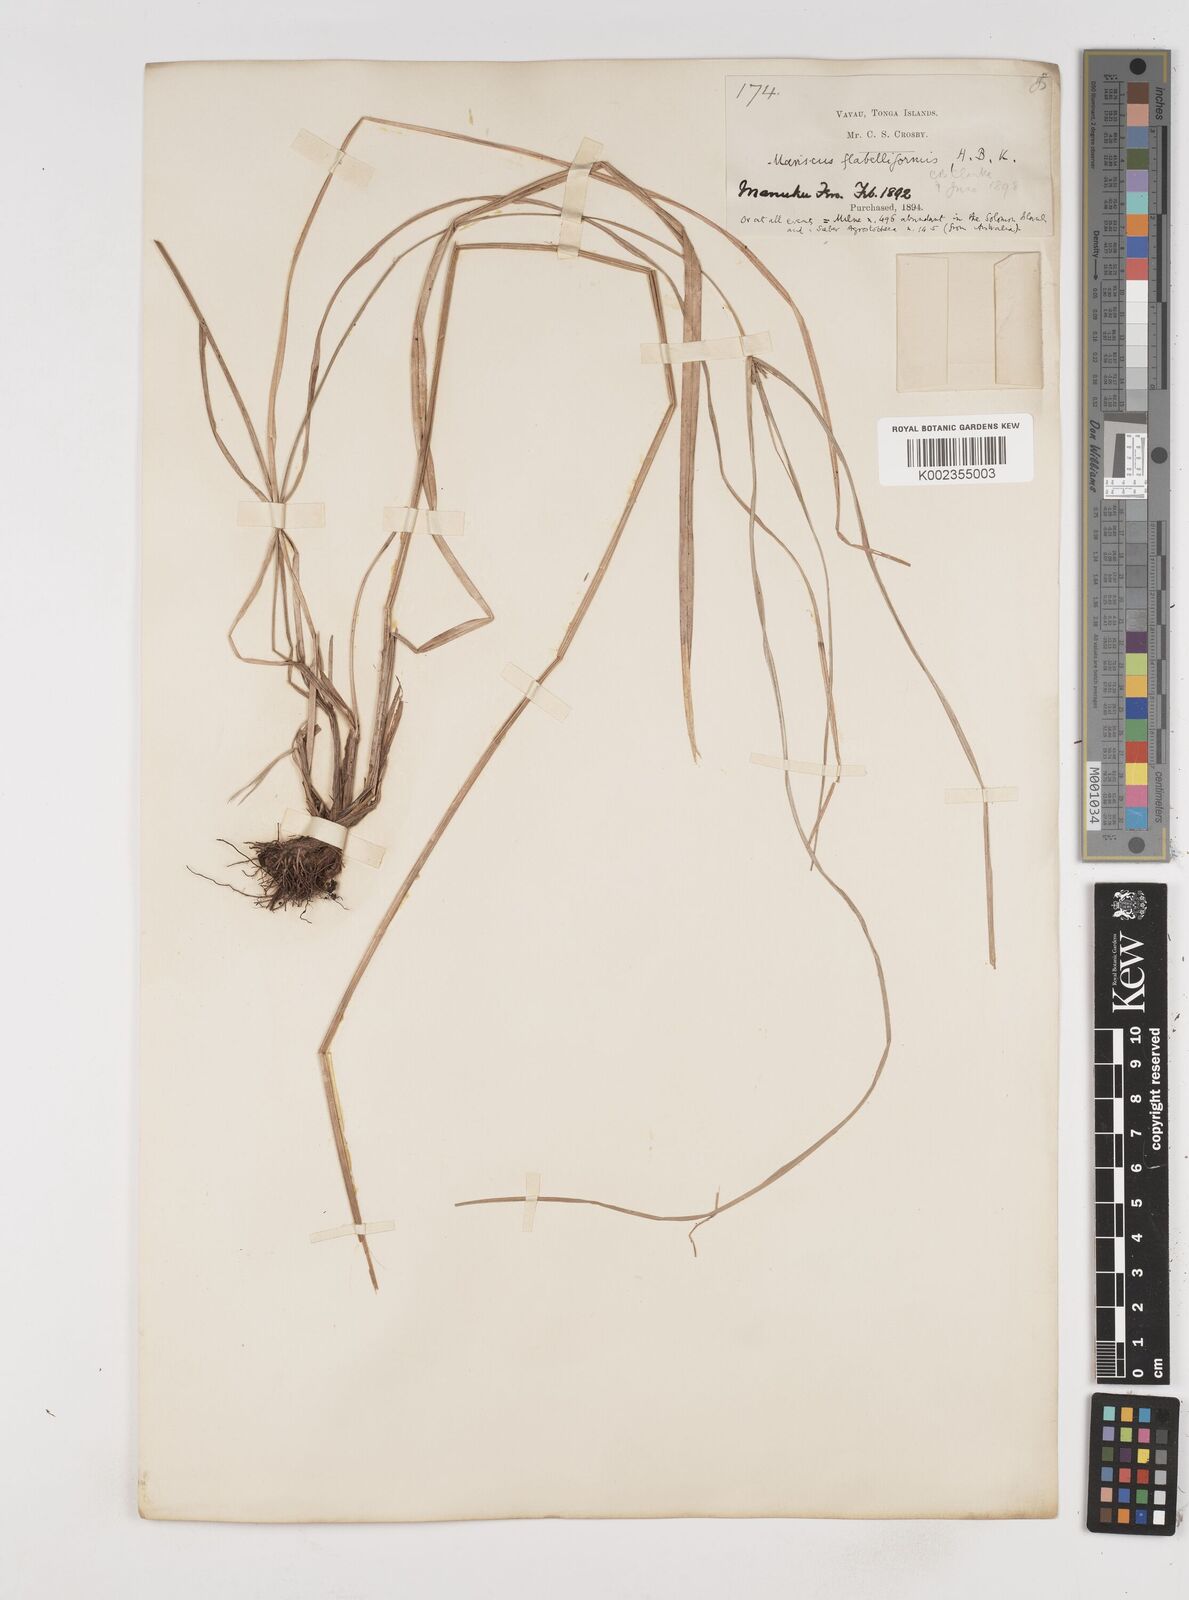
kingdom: Plantae
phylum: Tracheophyta
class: Liliopsida
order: Poales
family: Cyperaceae
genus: Cyperus
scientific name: Cyperus tenuis
